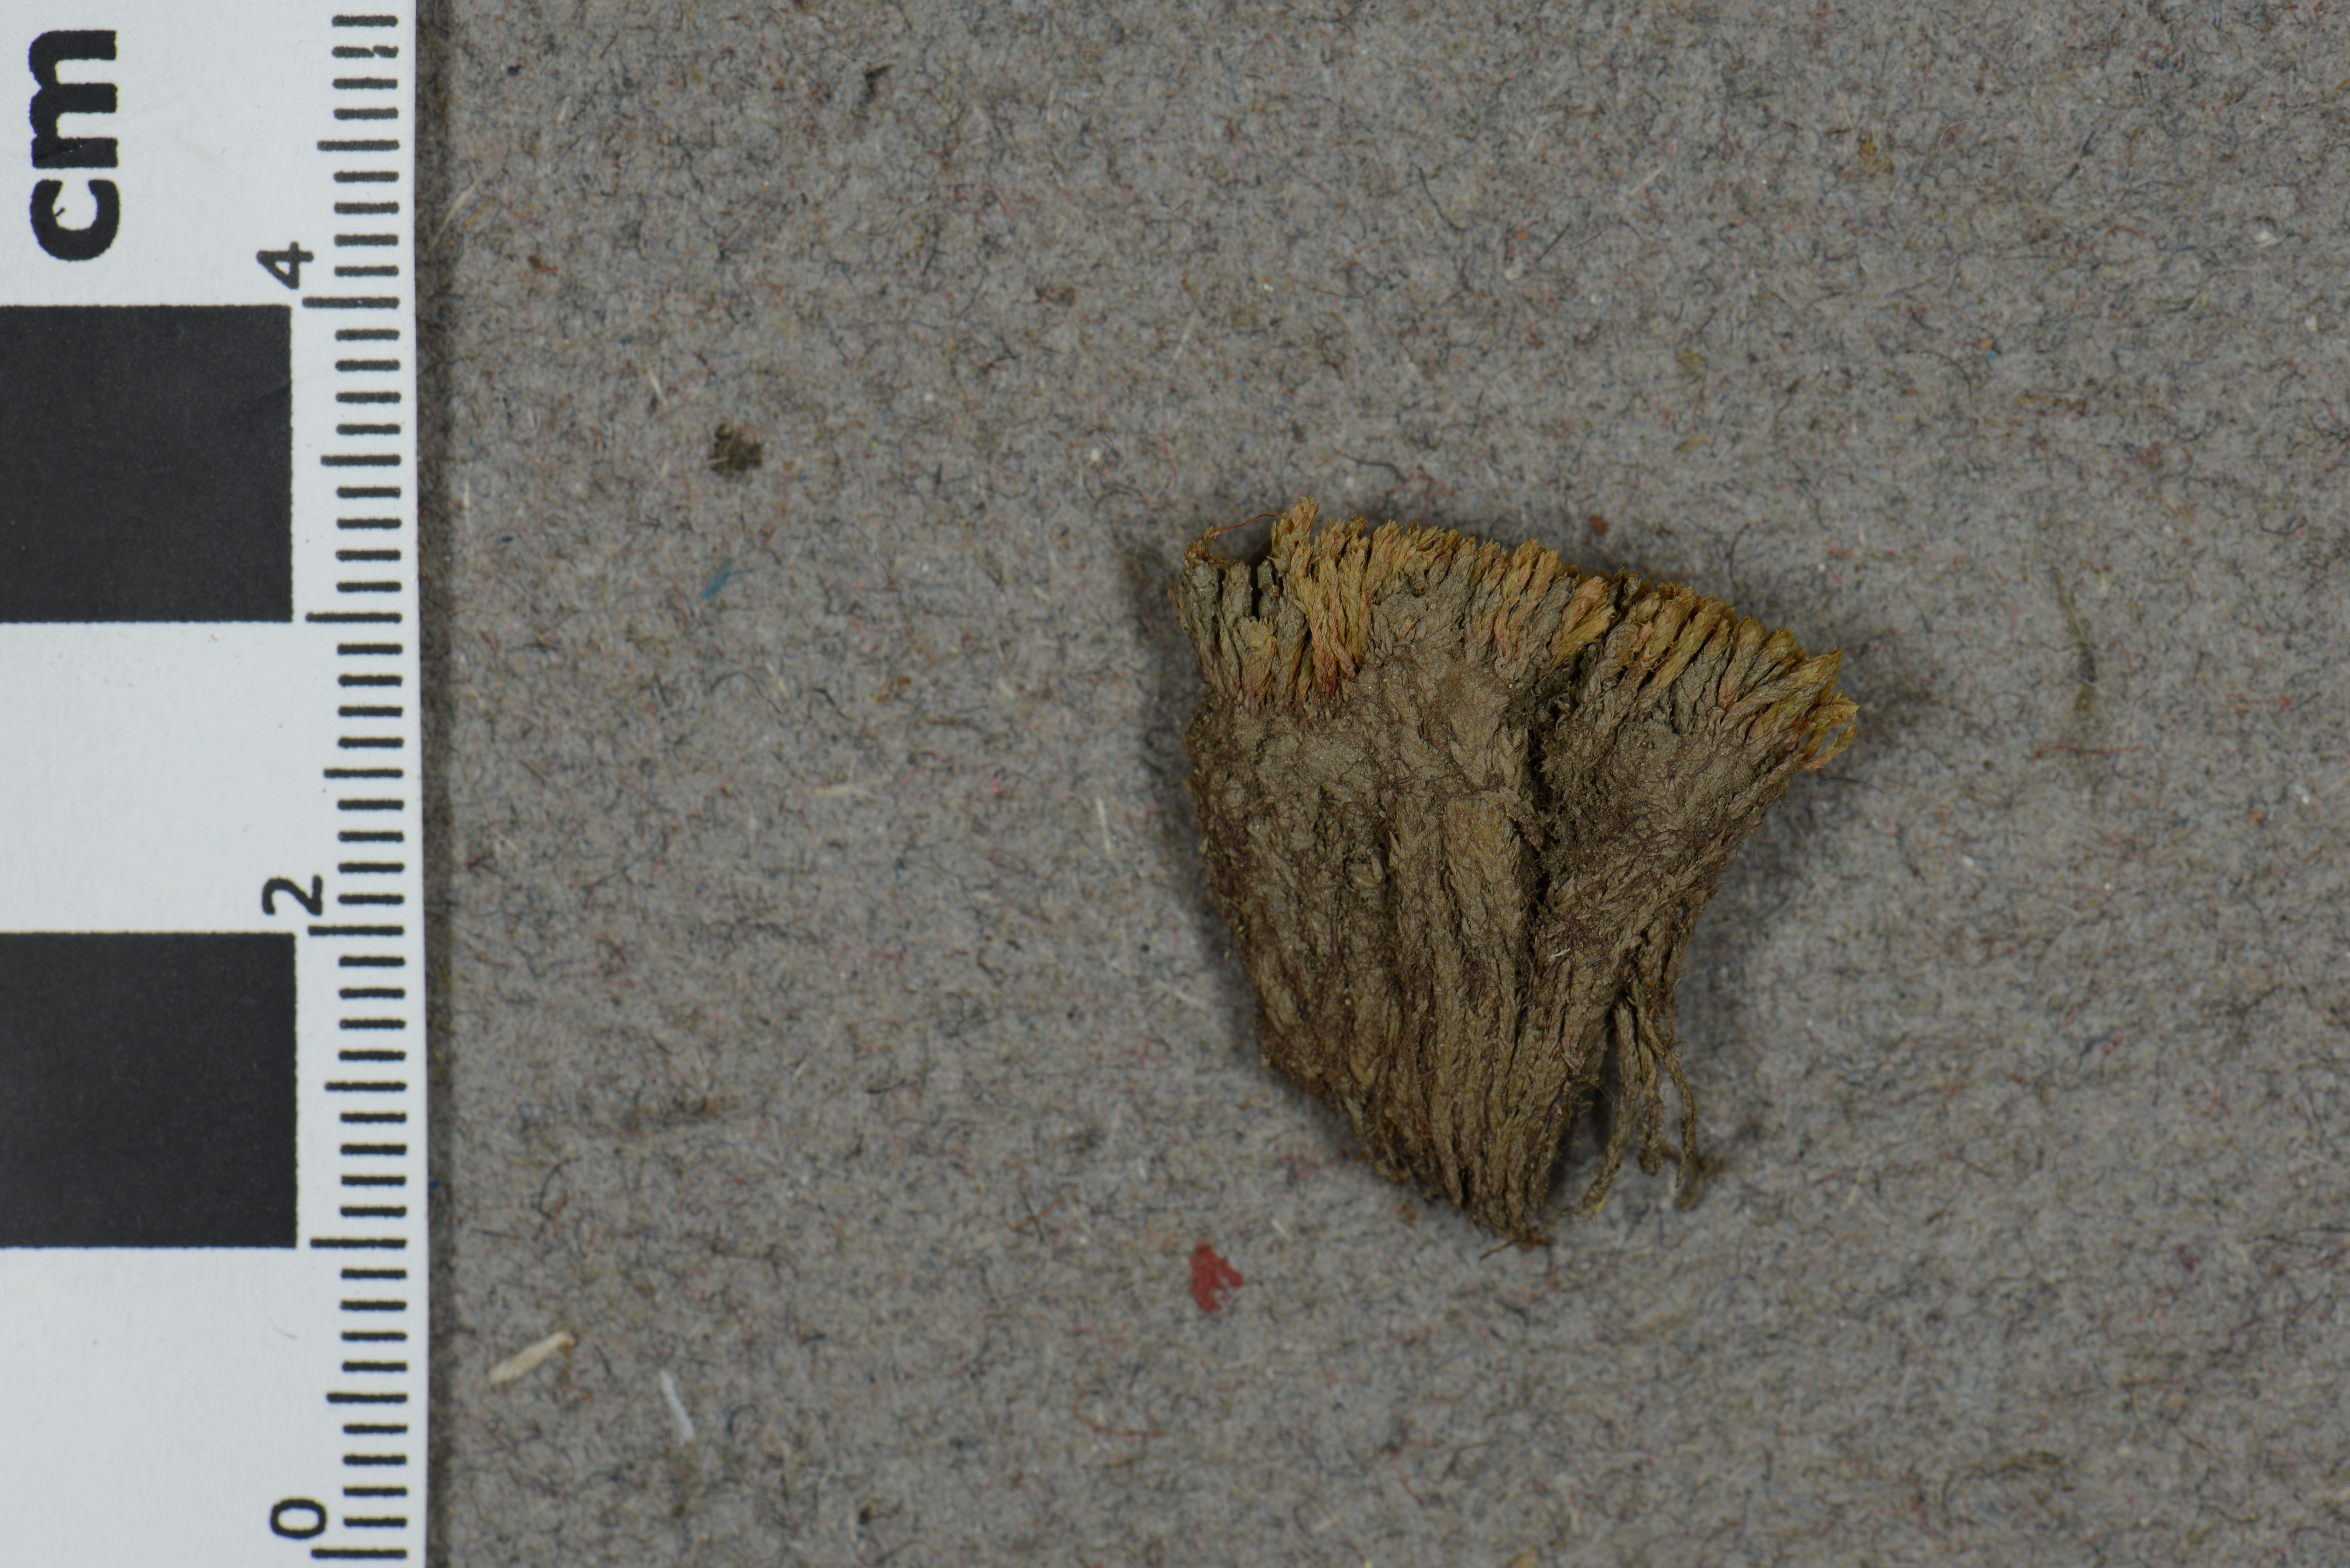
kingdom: Plantae
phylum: Bryophyta
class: Bryopsida
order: Bryales
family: Mniaceae
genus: Pohlia
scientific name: Pohlia cruda
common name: Opal nodding moss
